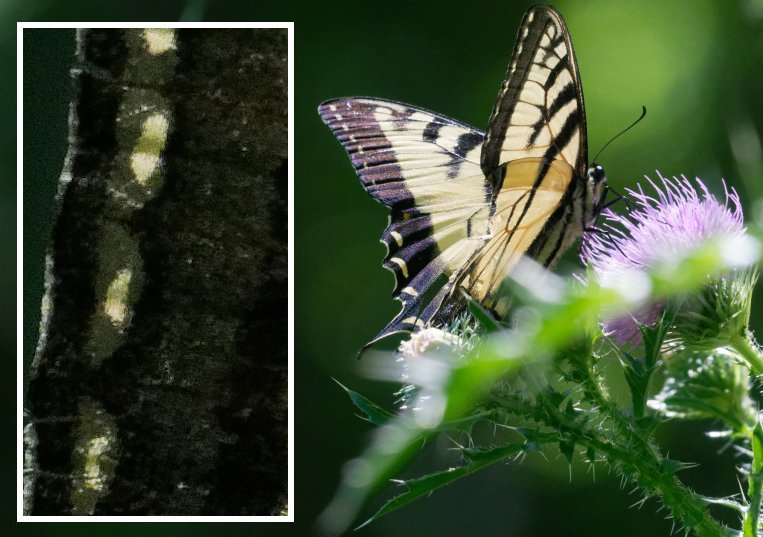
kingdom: Animalia
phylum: Arthropoda
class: Insecta
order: Lepidoptera
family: Papilionidae
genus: Pterourus
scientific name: Pterourus
